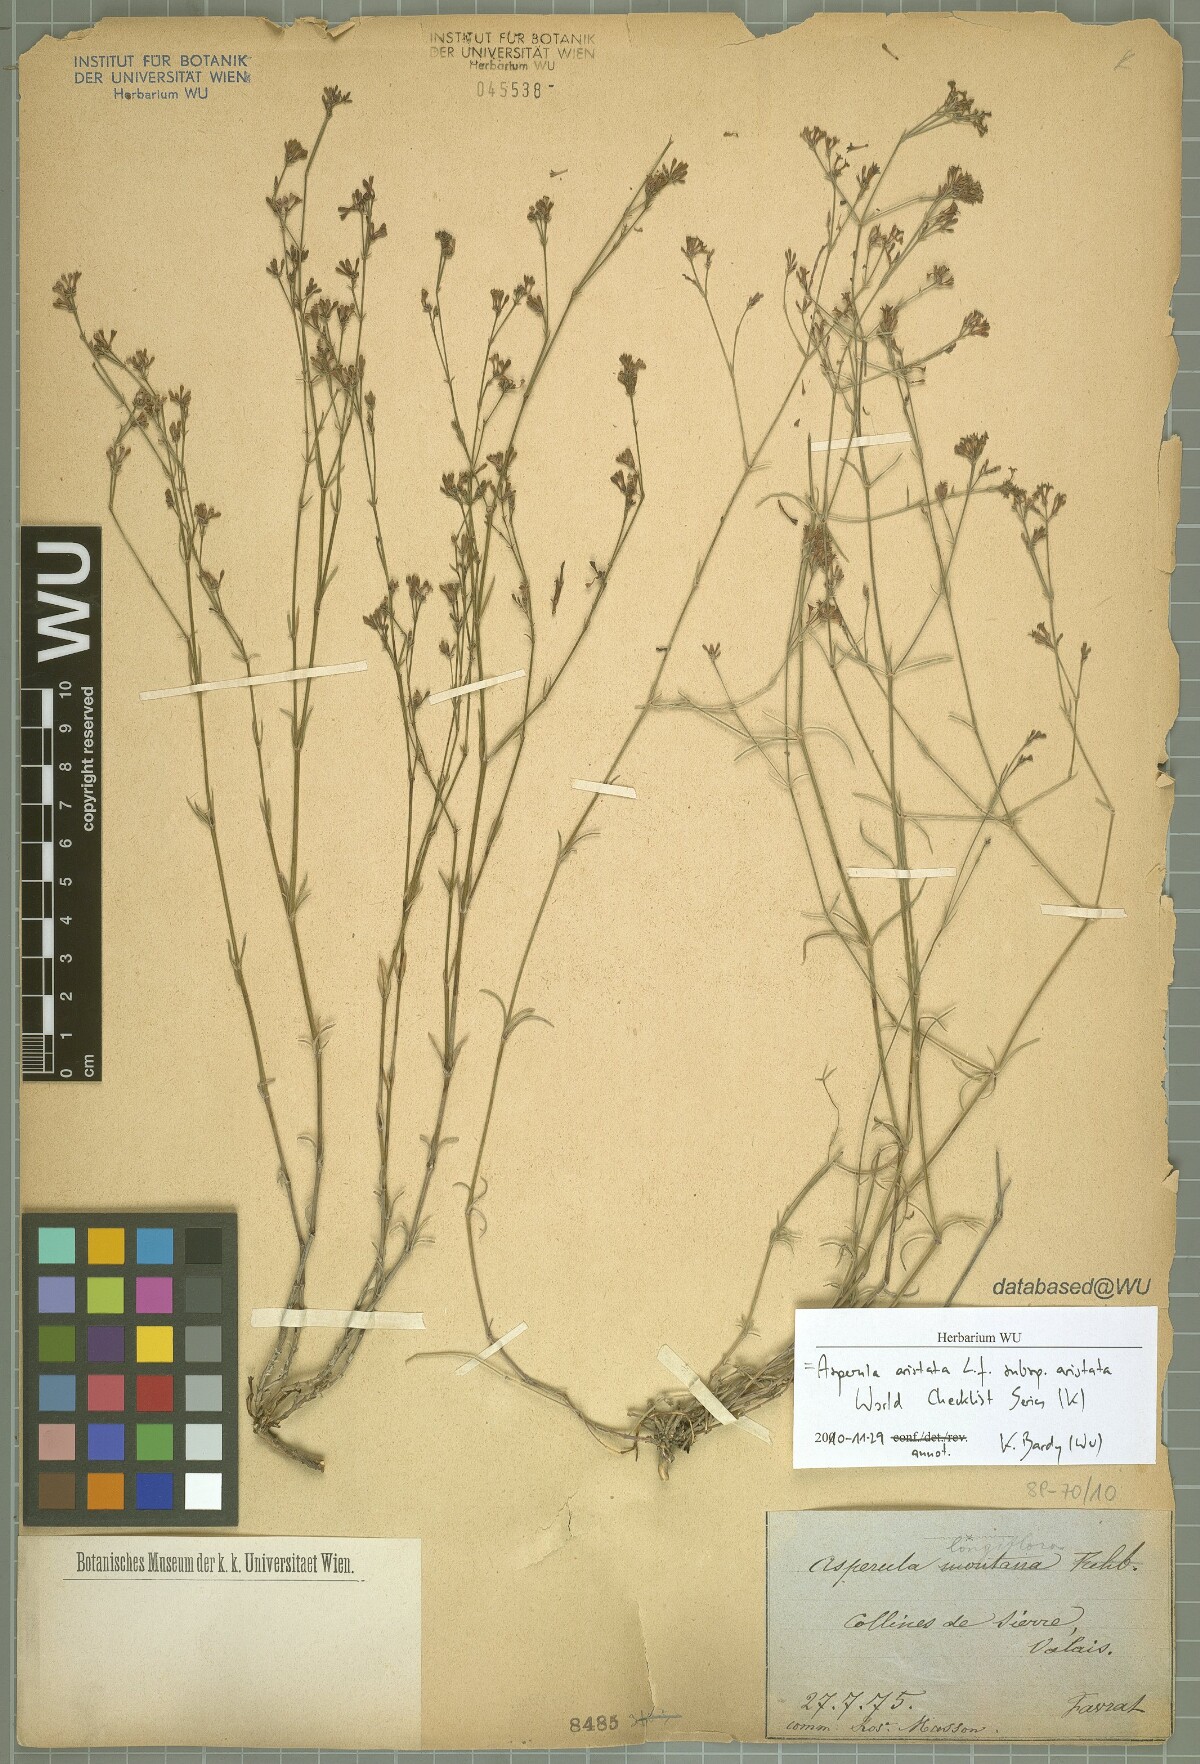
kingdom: Plantae
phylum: Tracheophyta
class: Magnoliopsida
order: Gentianales
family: Rubiaceae
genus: Cynanchica
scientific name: Cynanchica aristata
